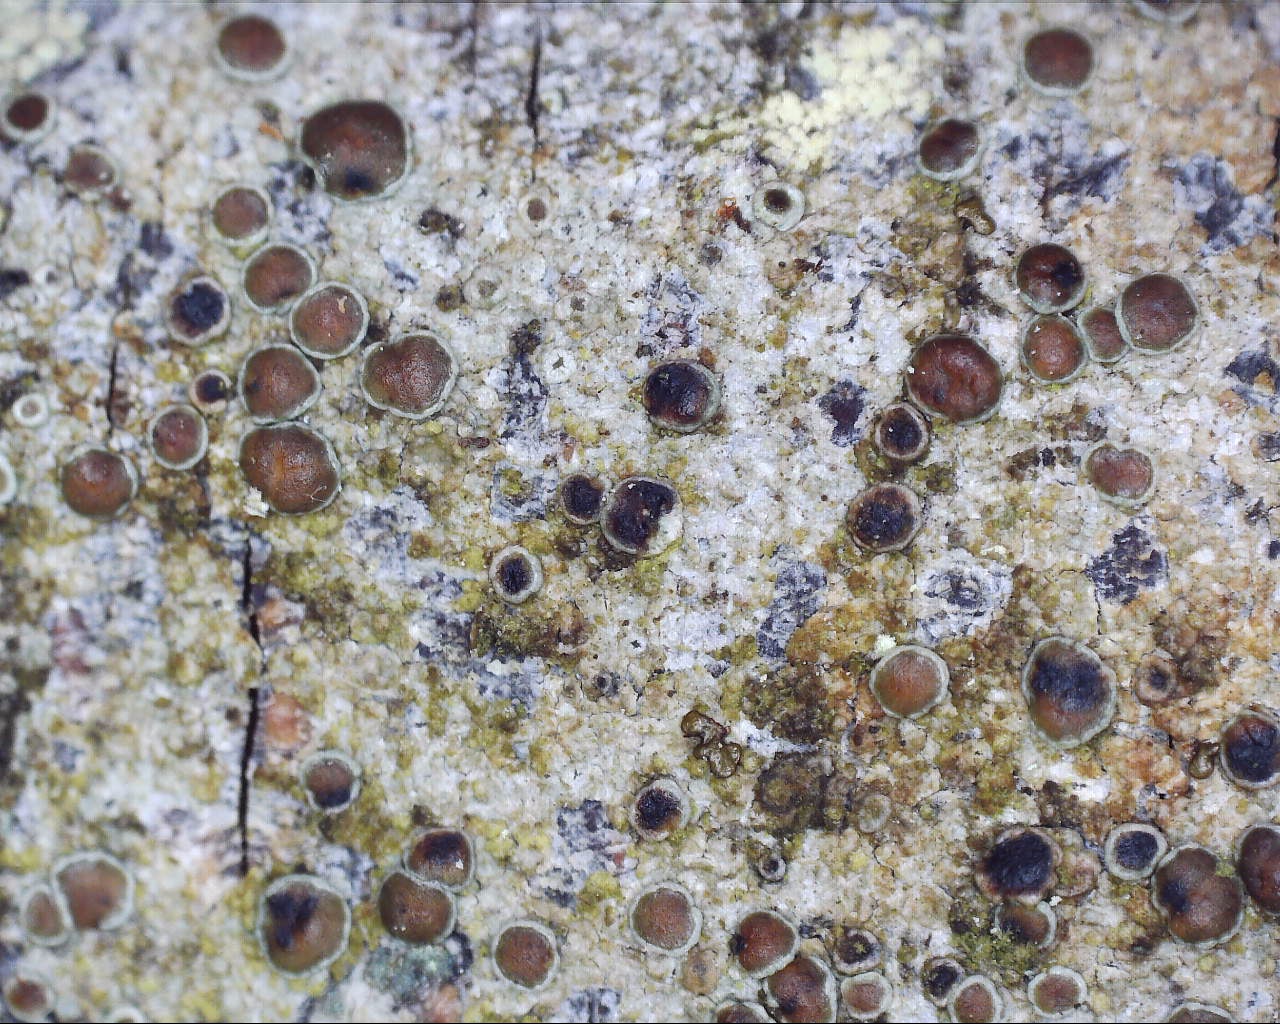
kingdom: Fungi
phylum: Ascomycota
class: Lecanoromycetes
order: Lecanorales
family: Lecanoraceae
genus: Lecanora
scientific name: Lecanora pulicaris
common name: almindelig kantskivelav
